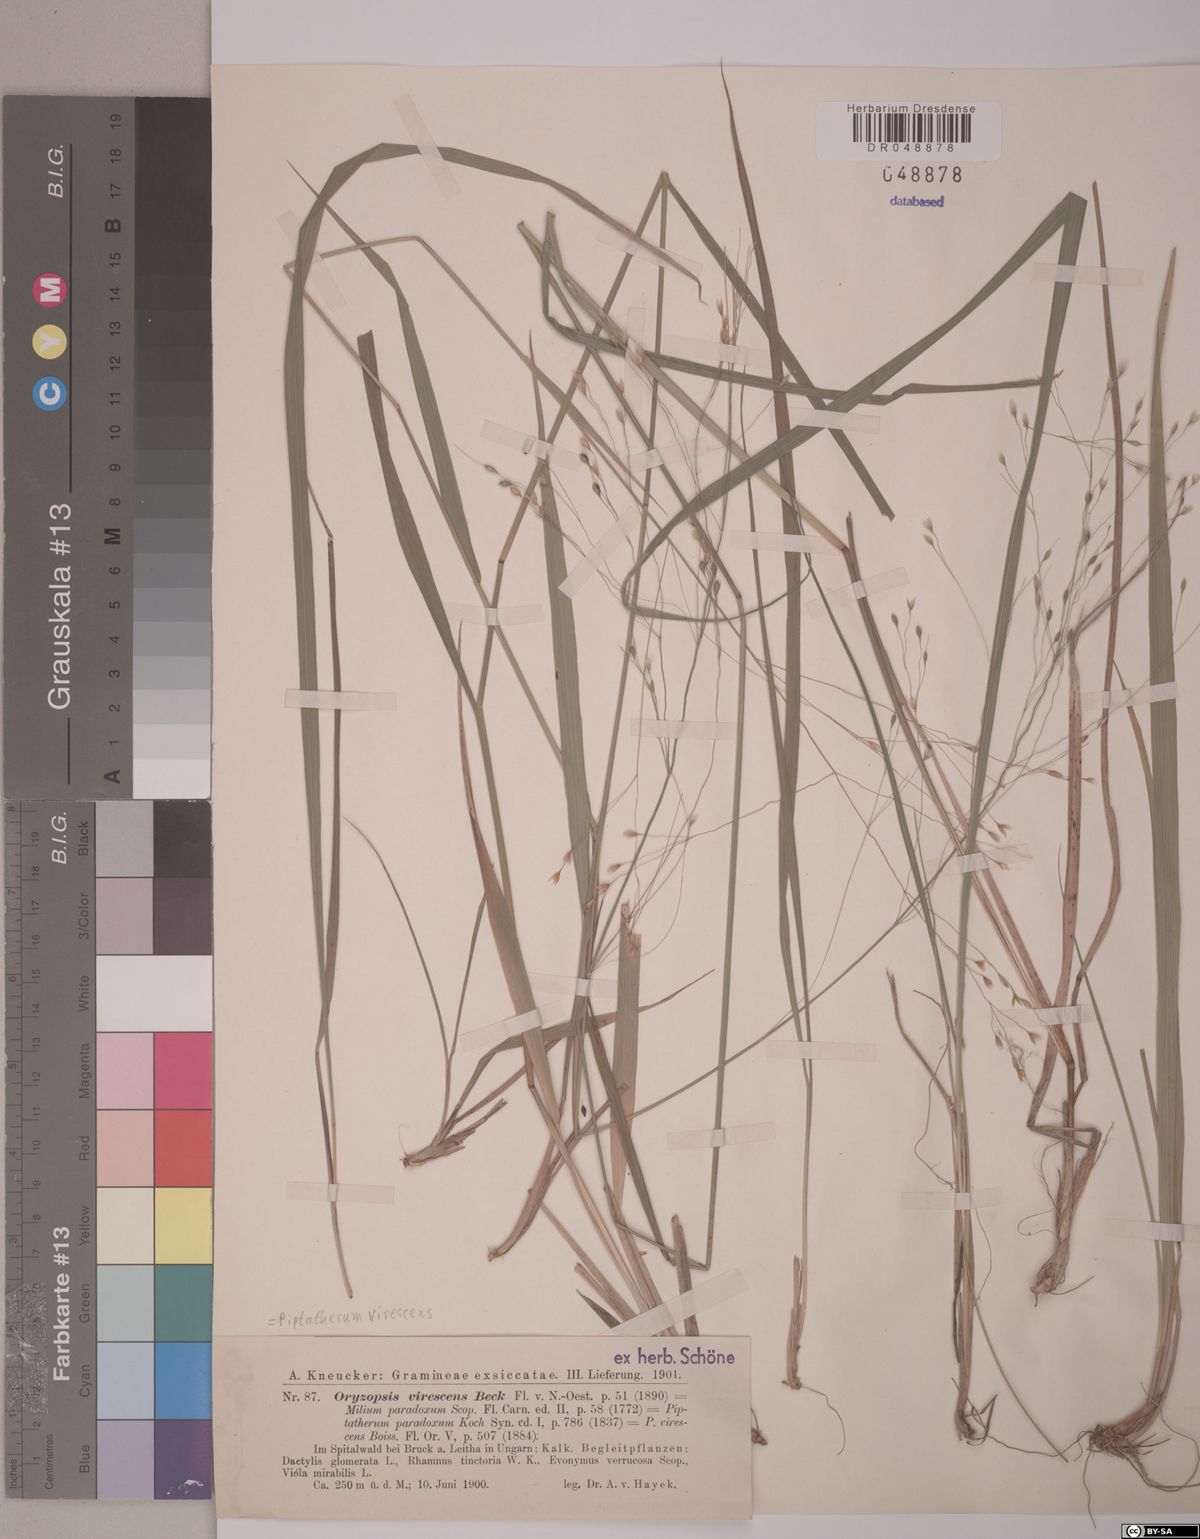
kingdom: Plantae
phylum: Tracheophyta
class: Liliopsida
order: Poales
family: Poaceae
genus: Achnatherum
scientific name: Achnatherum virescens
